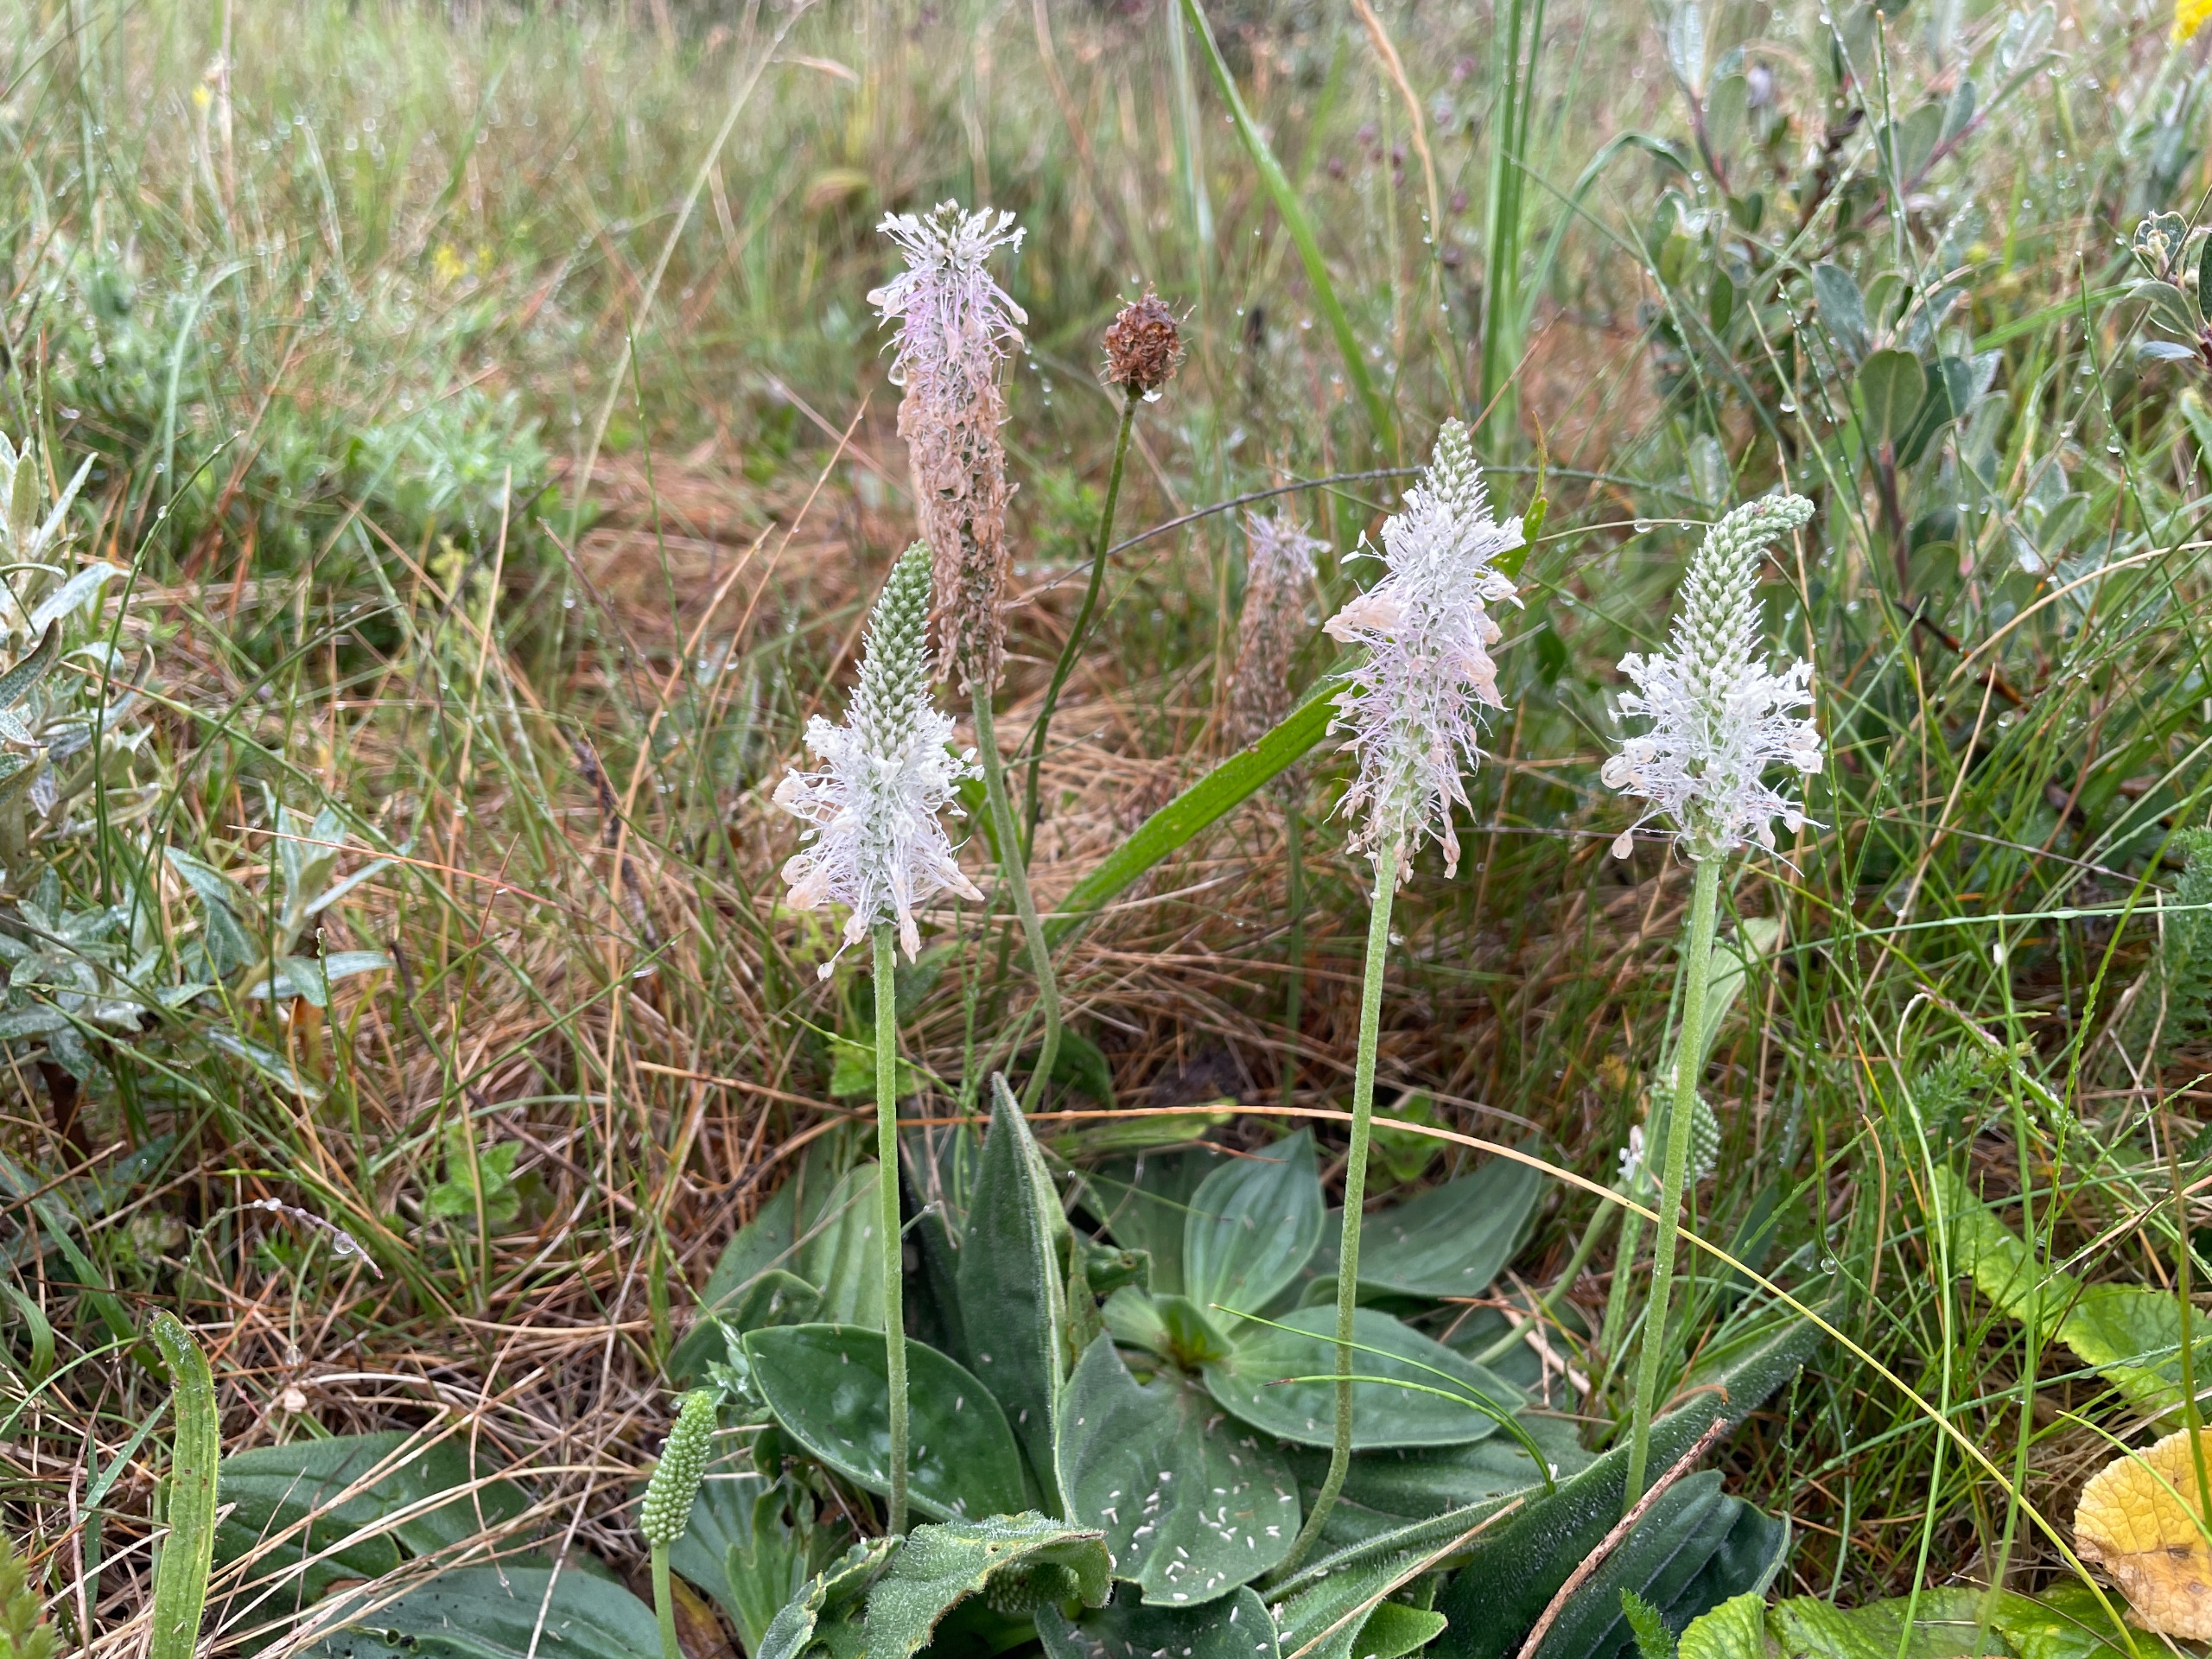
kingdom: Plantae
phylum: Tracheophyta
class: Magnoliopsida
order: Lamiales
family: Plantaginaceae
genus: Plantago
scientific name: Plantago media
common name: Dunet vejbred
